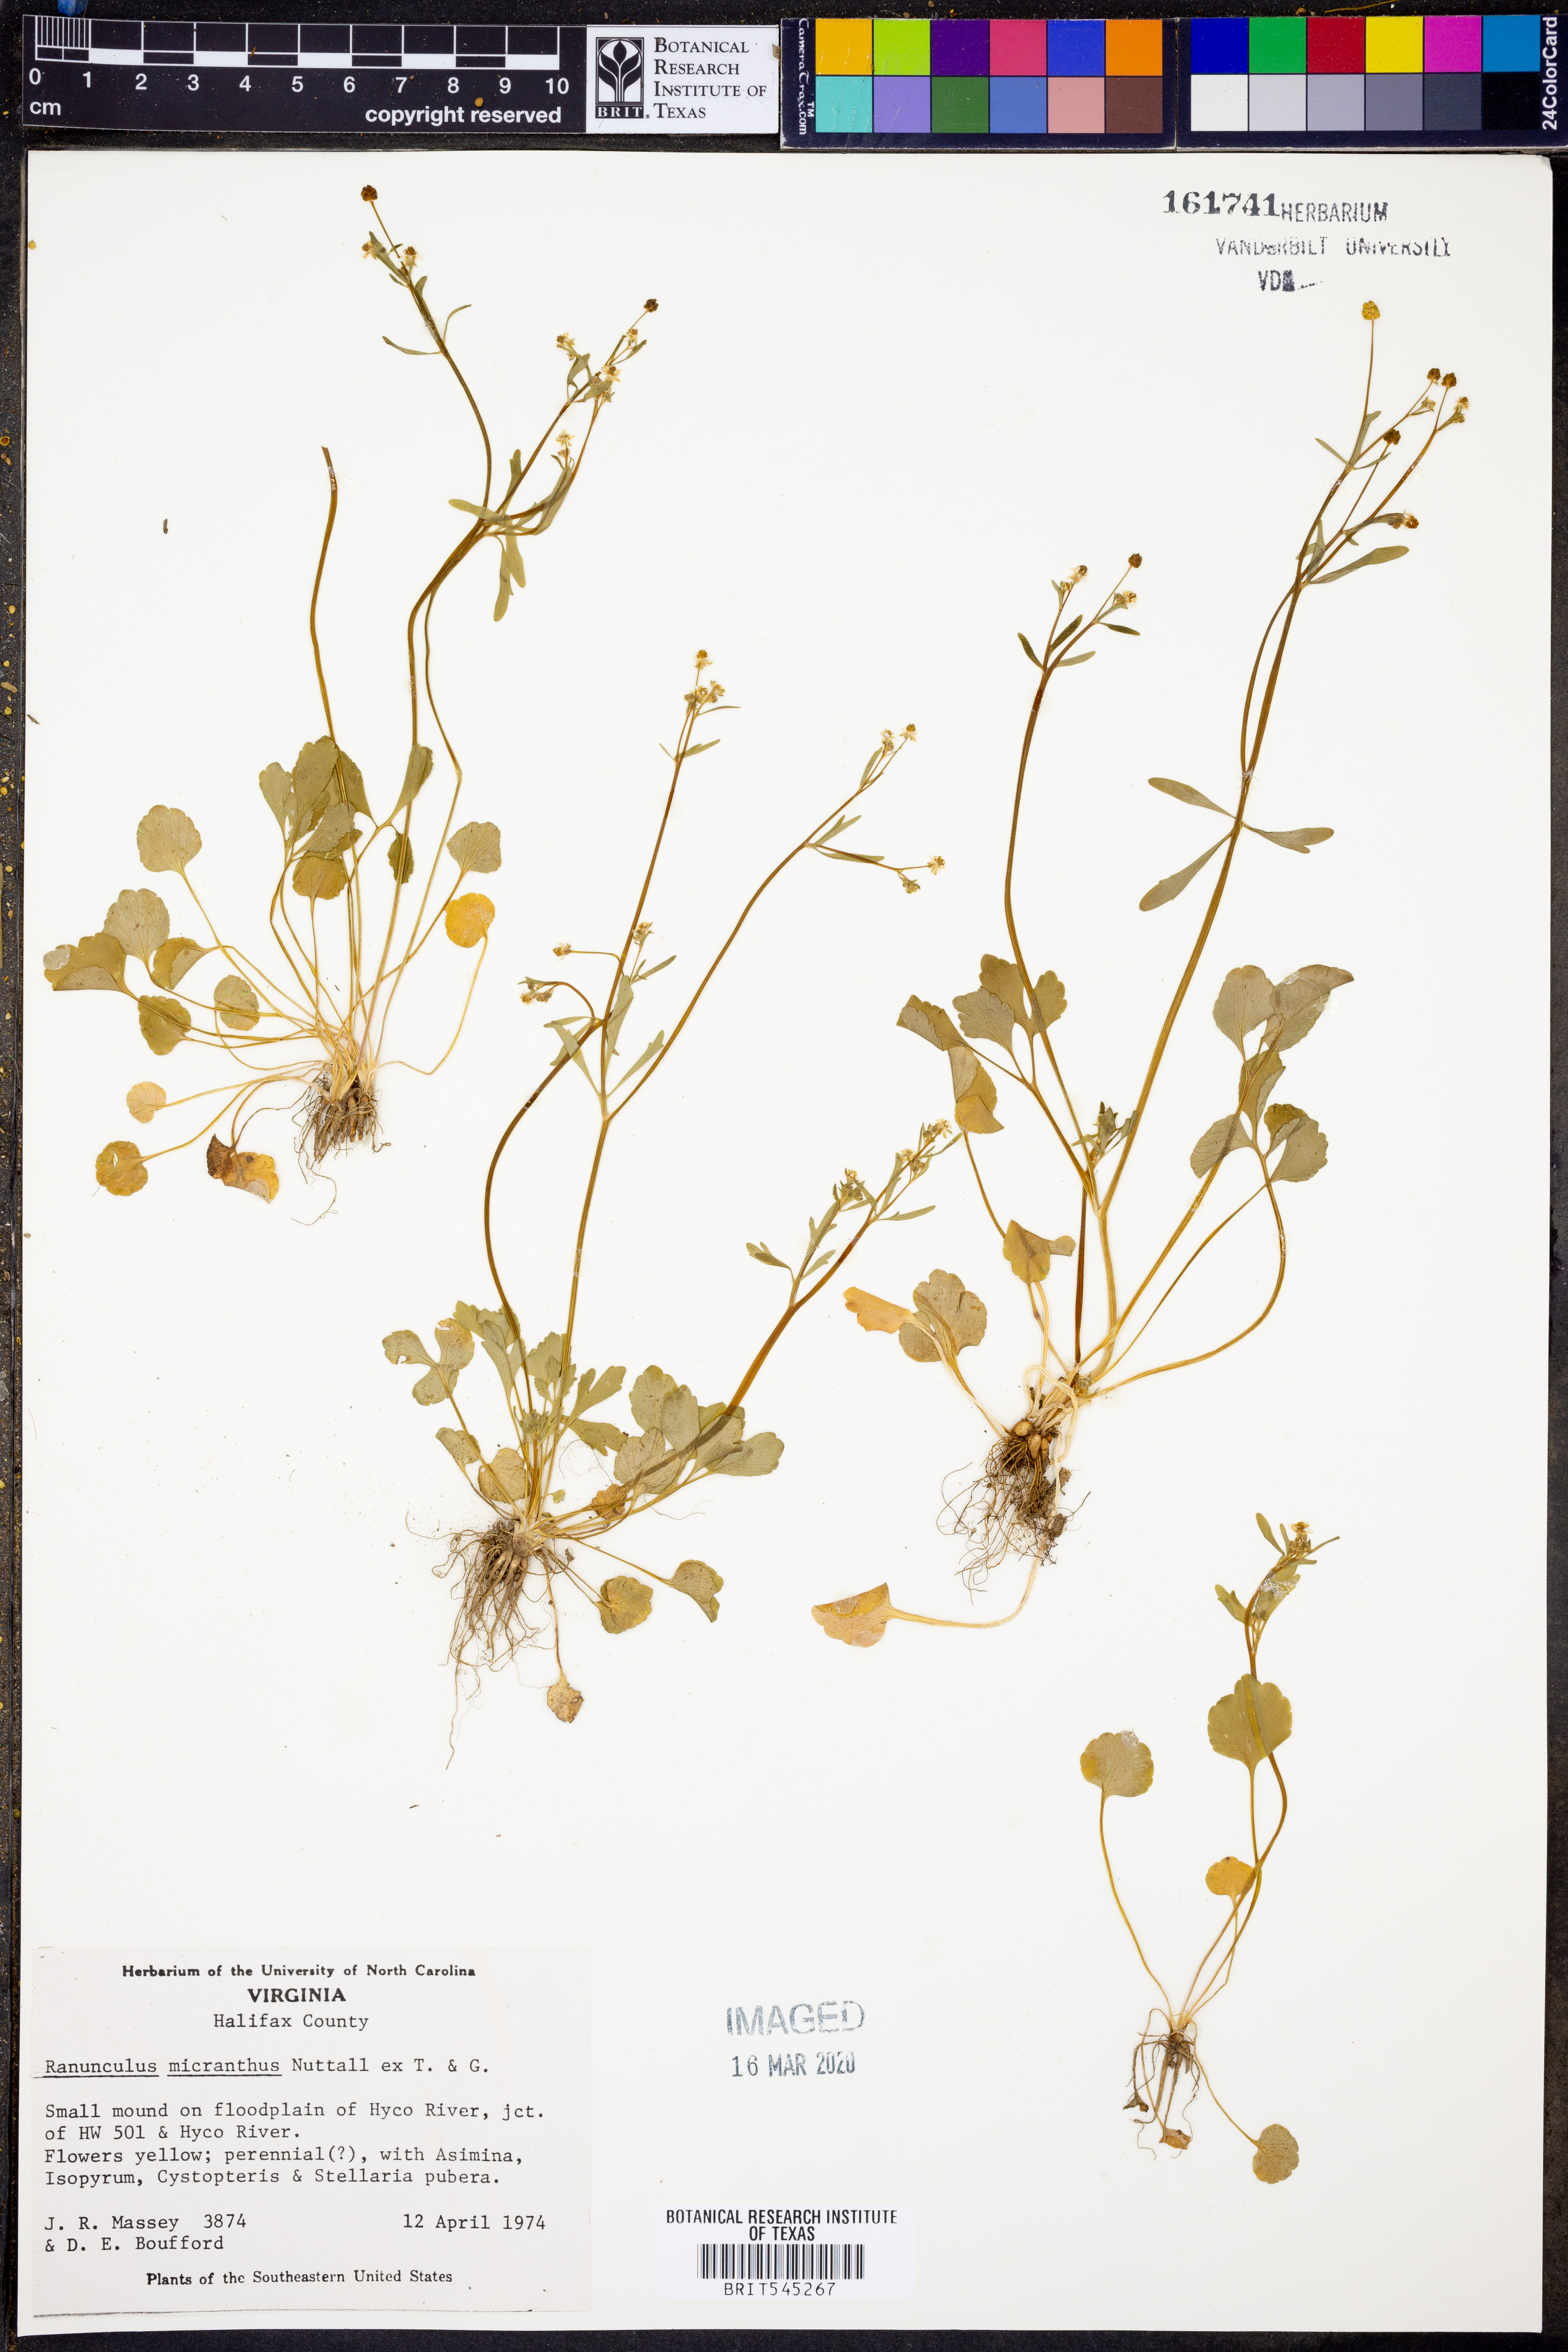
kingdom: Plantae
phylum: Tracheophyta
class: Magnoliopsida
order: Ranunculales
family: Ranunculaceae
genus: Ranunculus
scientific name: Ranunculus micranthus
